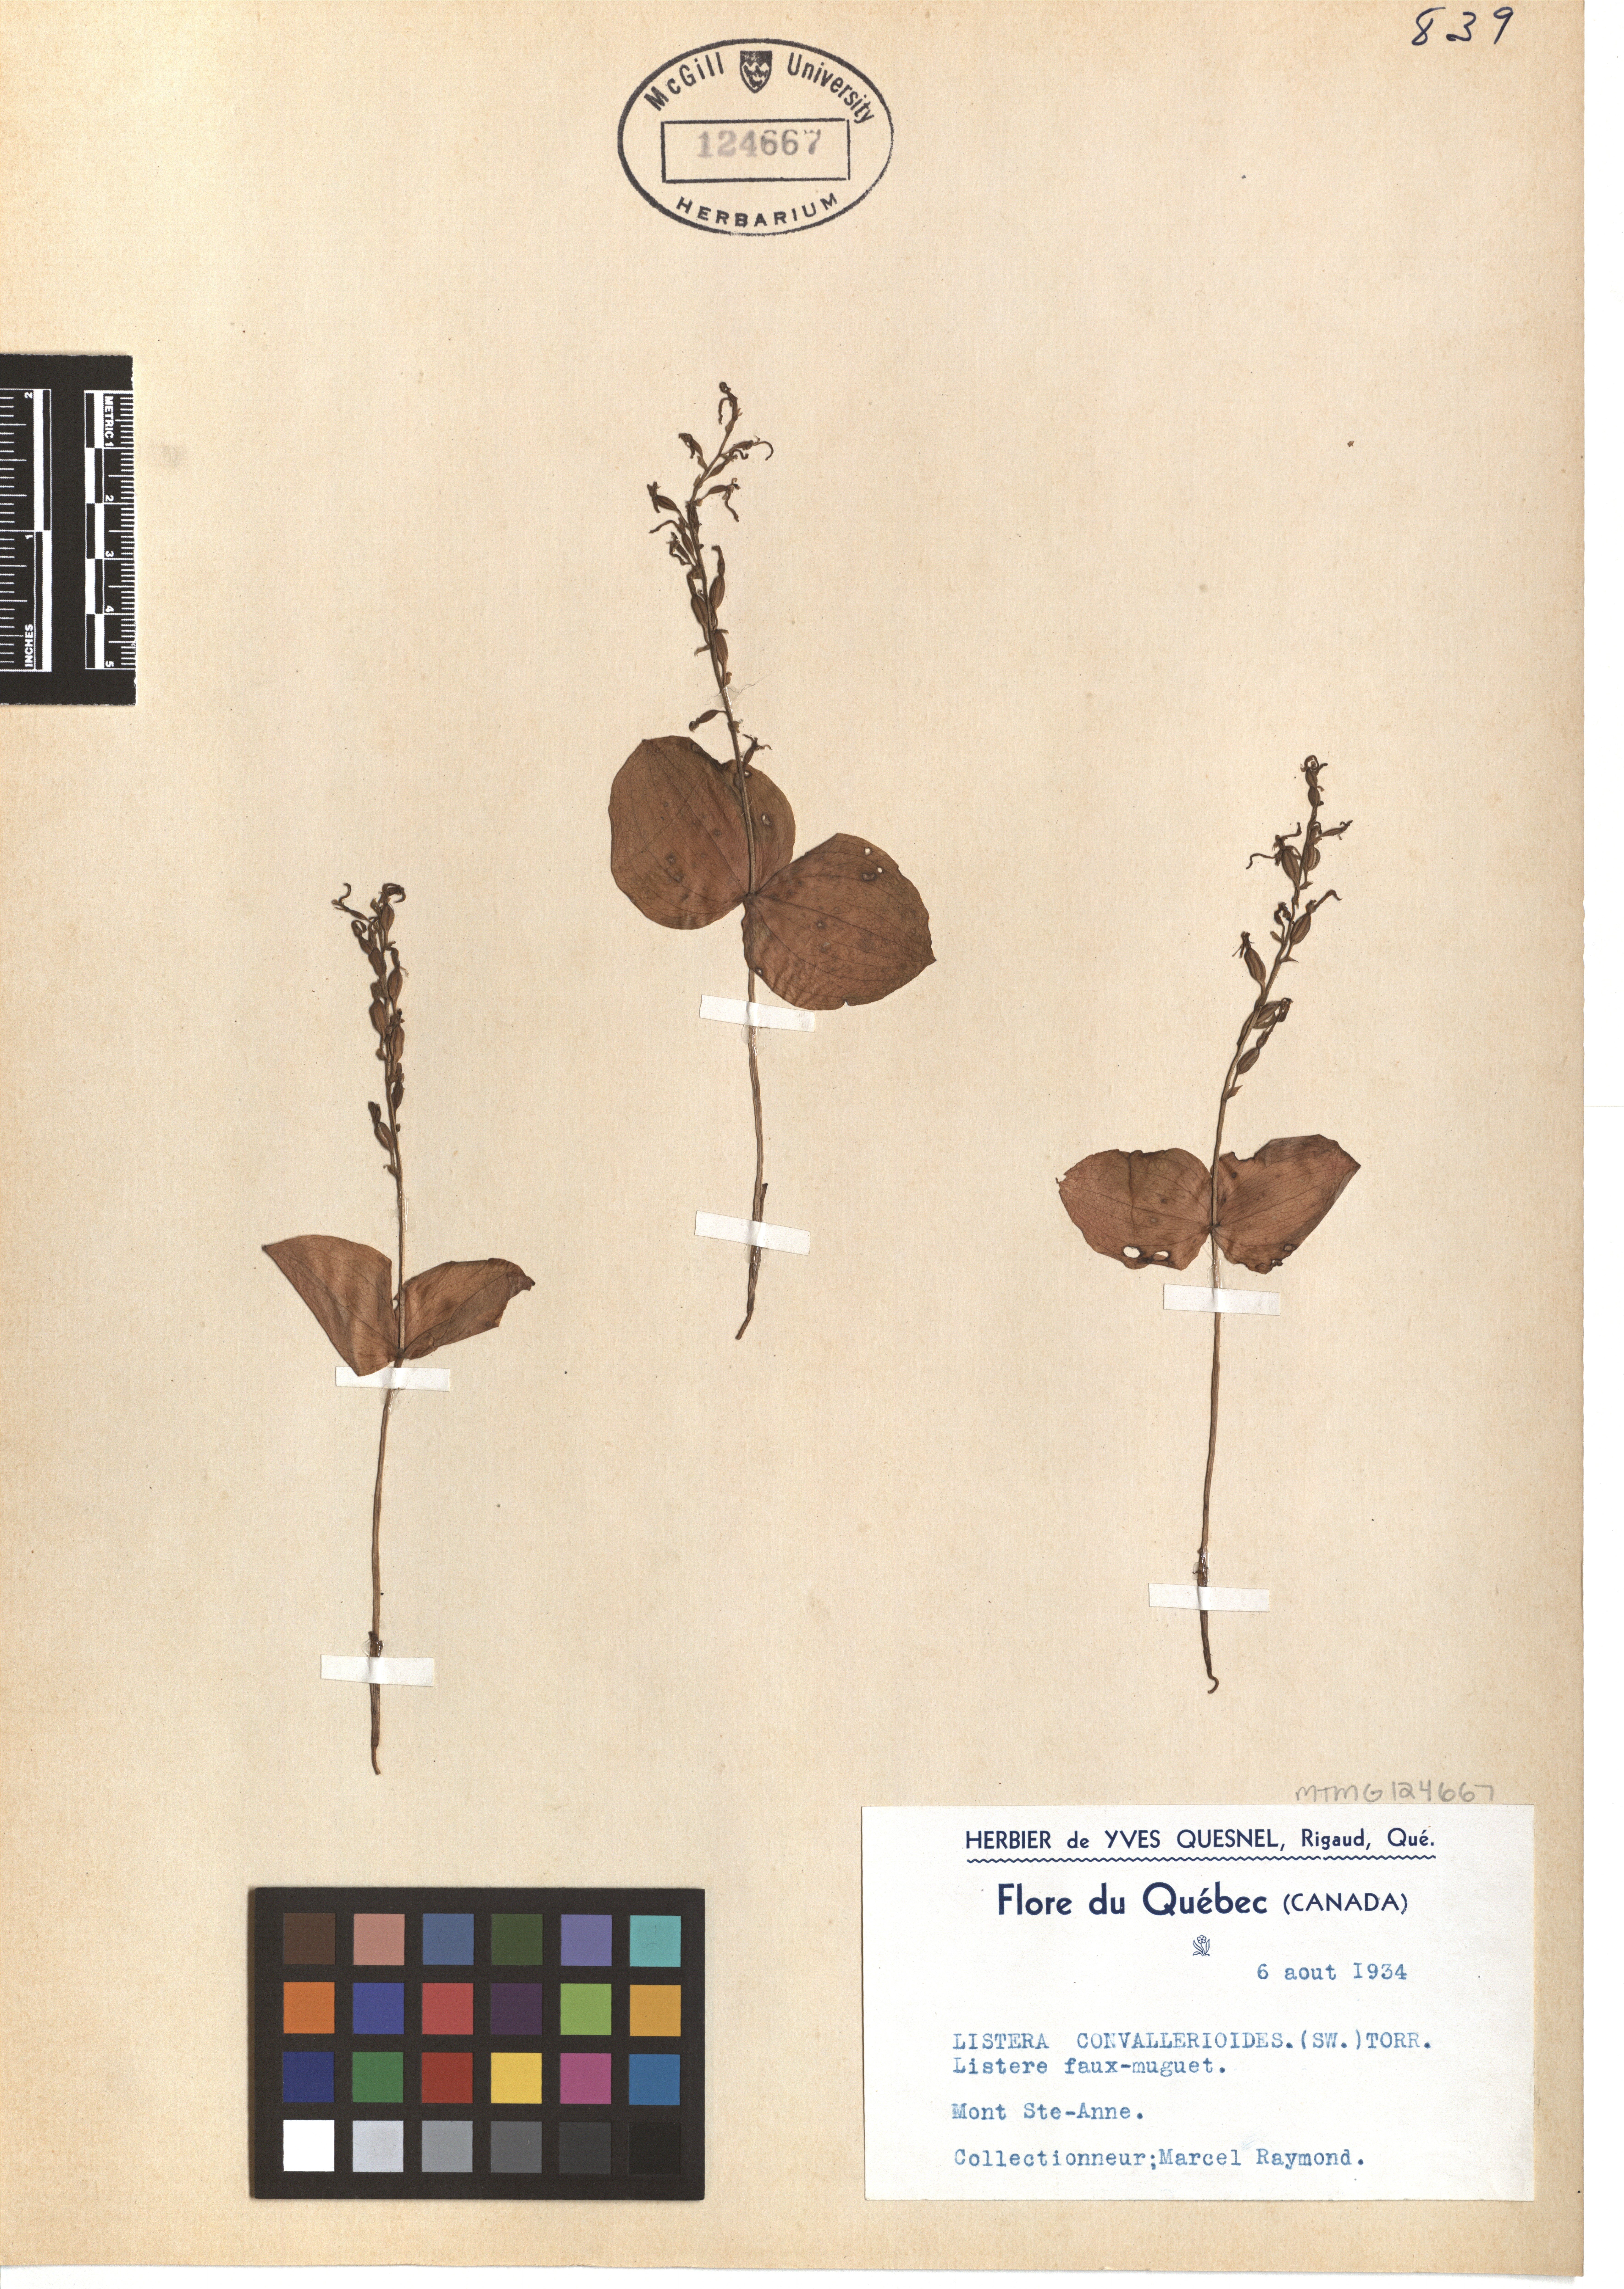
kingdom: Plantae
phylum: Tracheophyta
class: Liliopsida
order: Asparagales
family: Orchidaceae
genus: Neottia
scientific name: Neottia convallarioides
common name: Broadleaf twayblade
